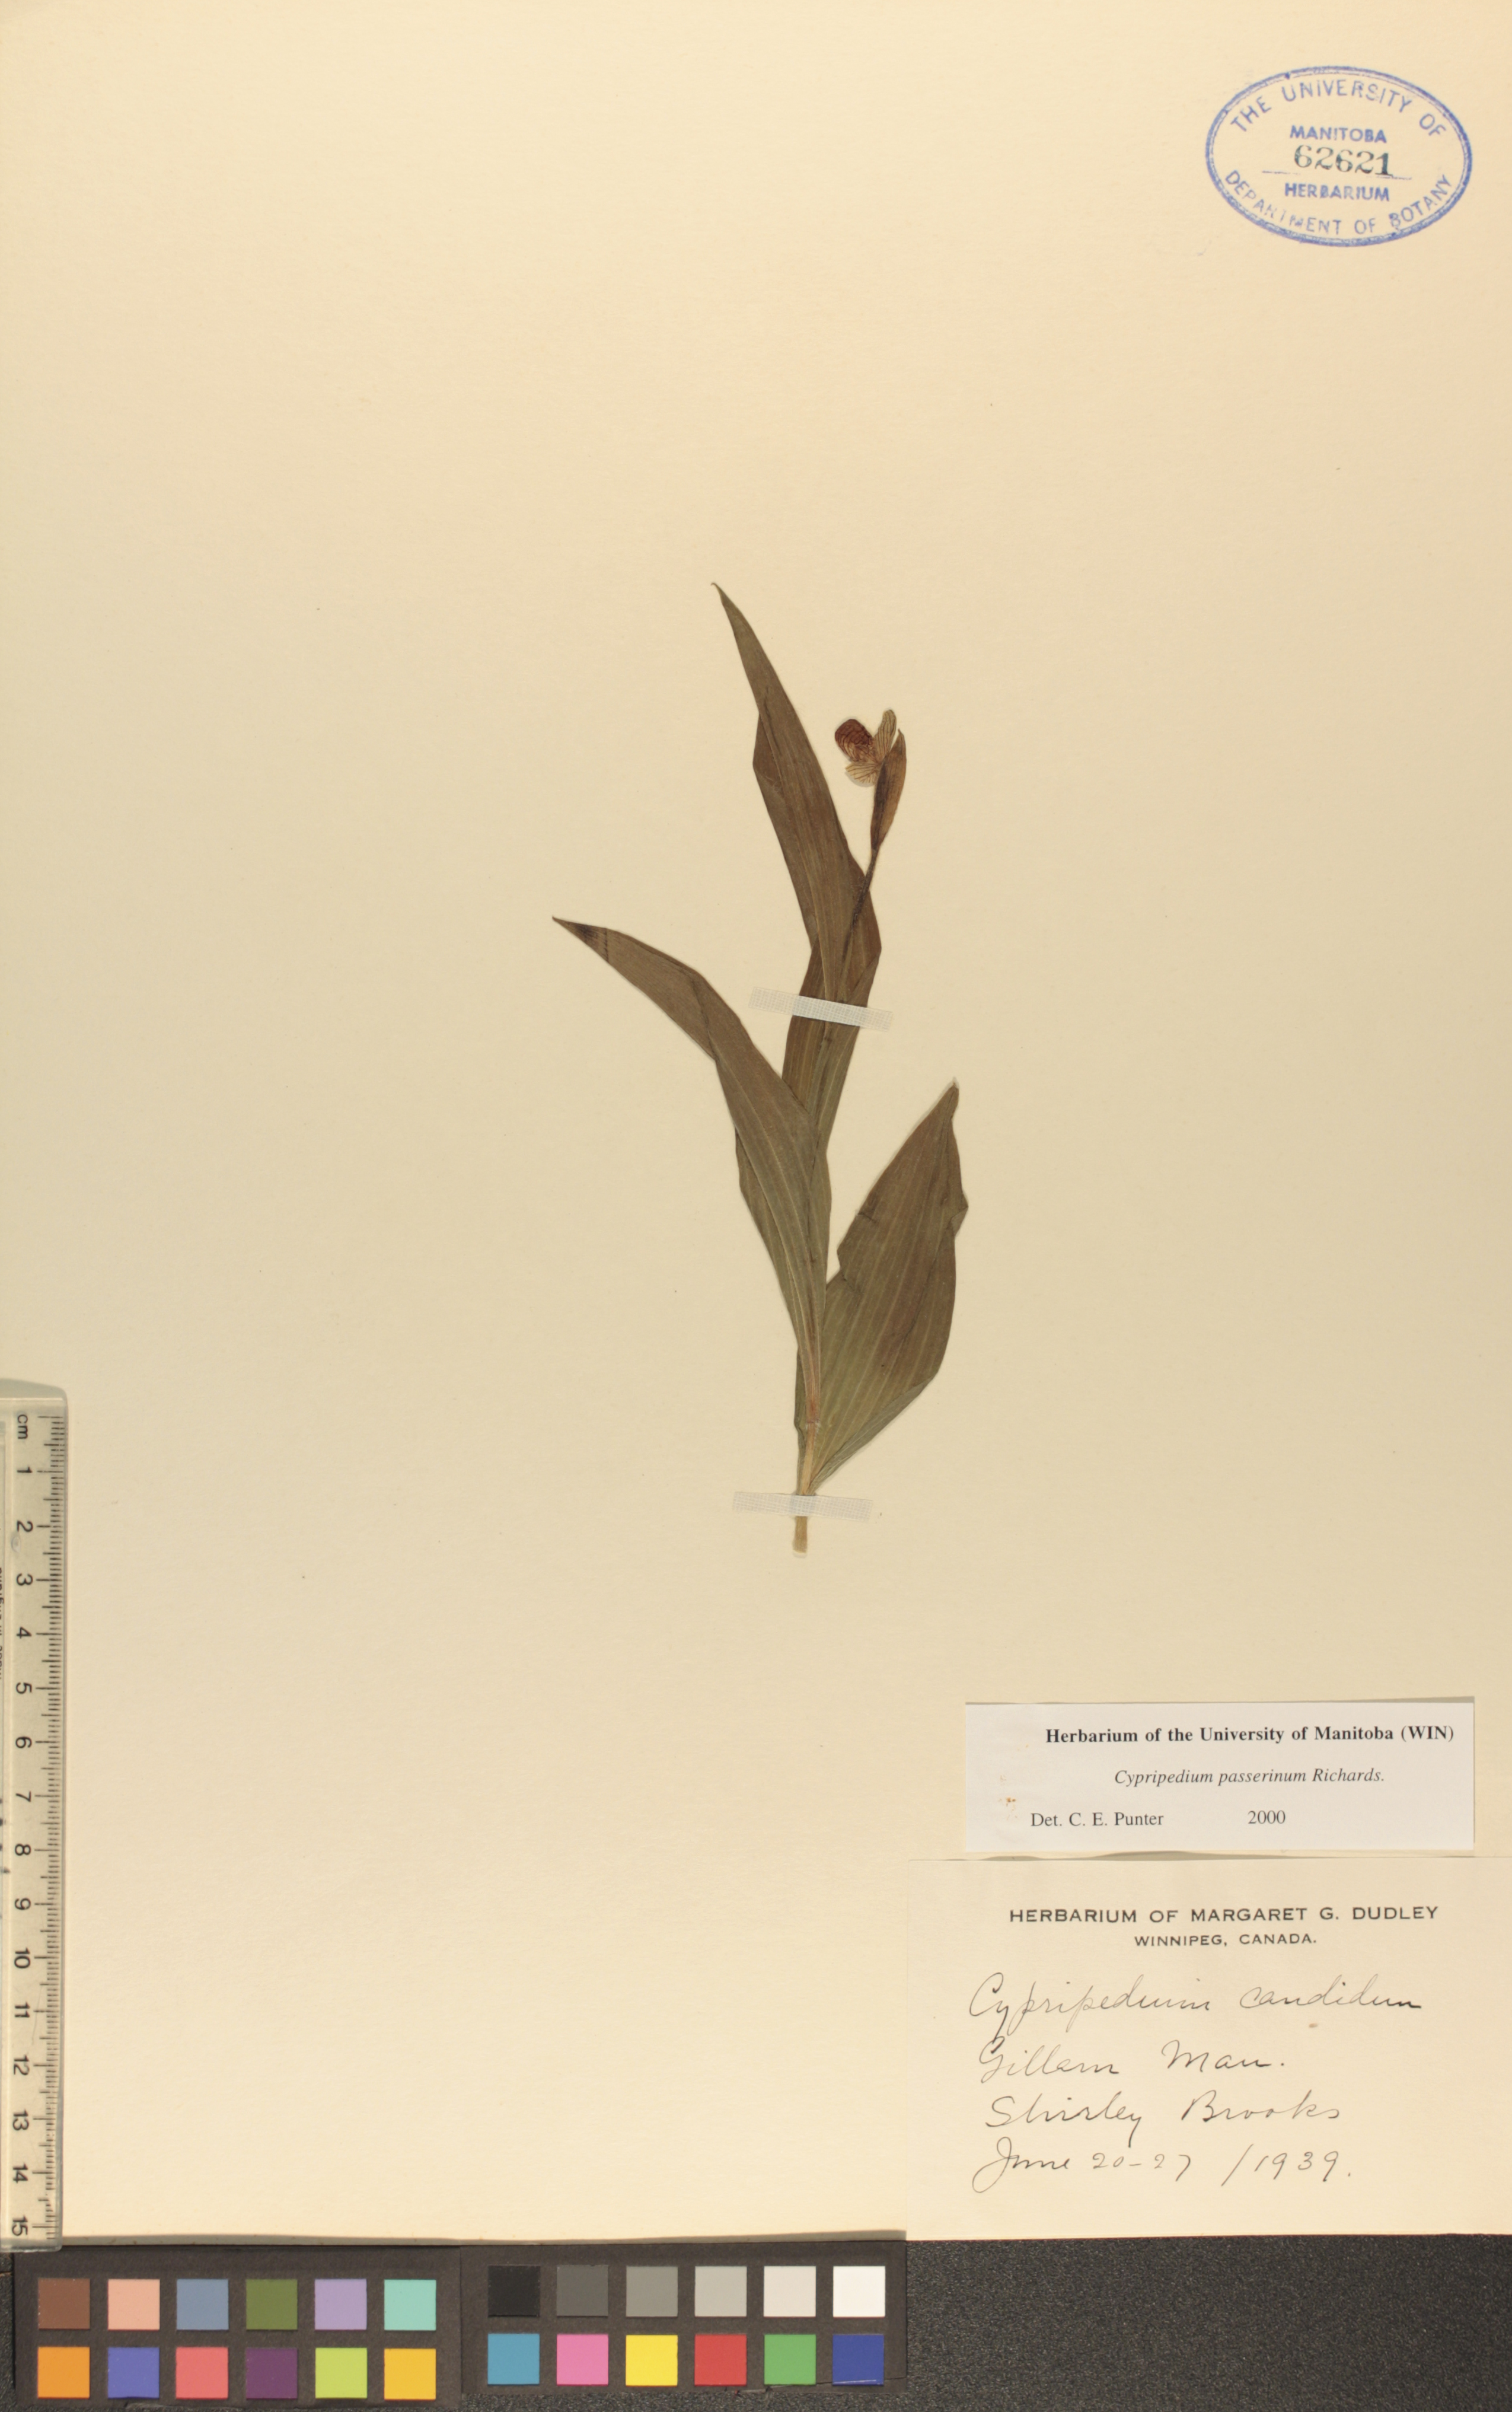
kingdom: Plantae
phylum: Tracheophyta
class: Liliopsida
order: Asparagales
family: Orchidaceae
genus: Cypripedium
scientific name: Cypripedium passerinum
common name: Sparrow's-egg lady's-slipper
